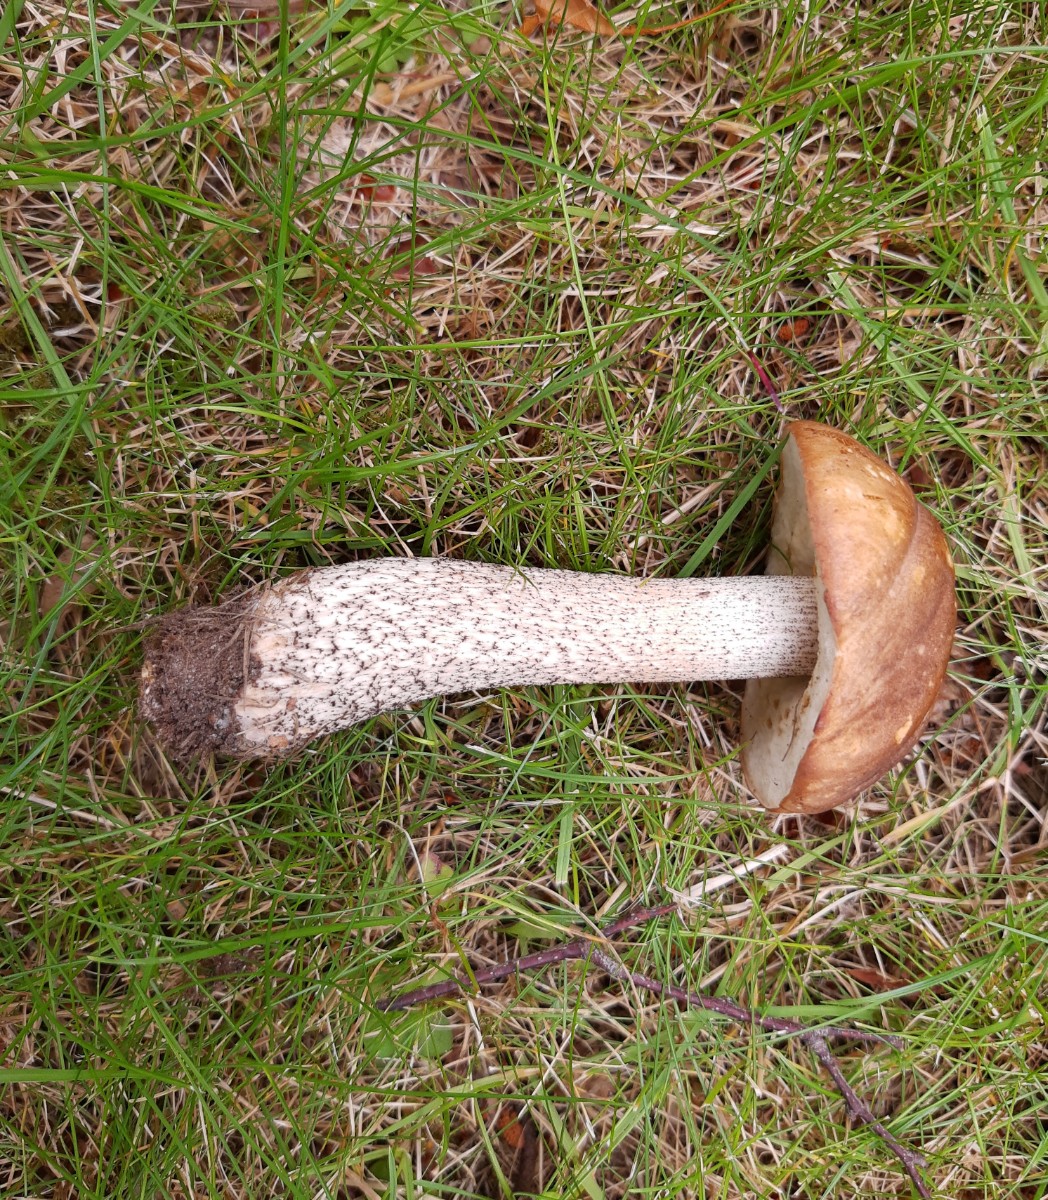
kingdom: Fungi
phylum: Basidiomycota
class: Agaricomycetes
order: Boletales
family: Boletaceae
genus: Leccinum
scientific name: Leccinum scabrum
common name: brun skælrørhat
